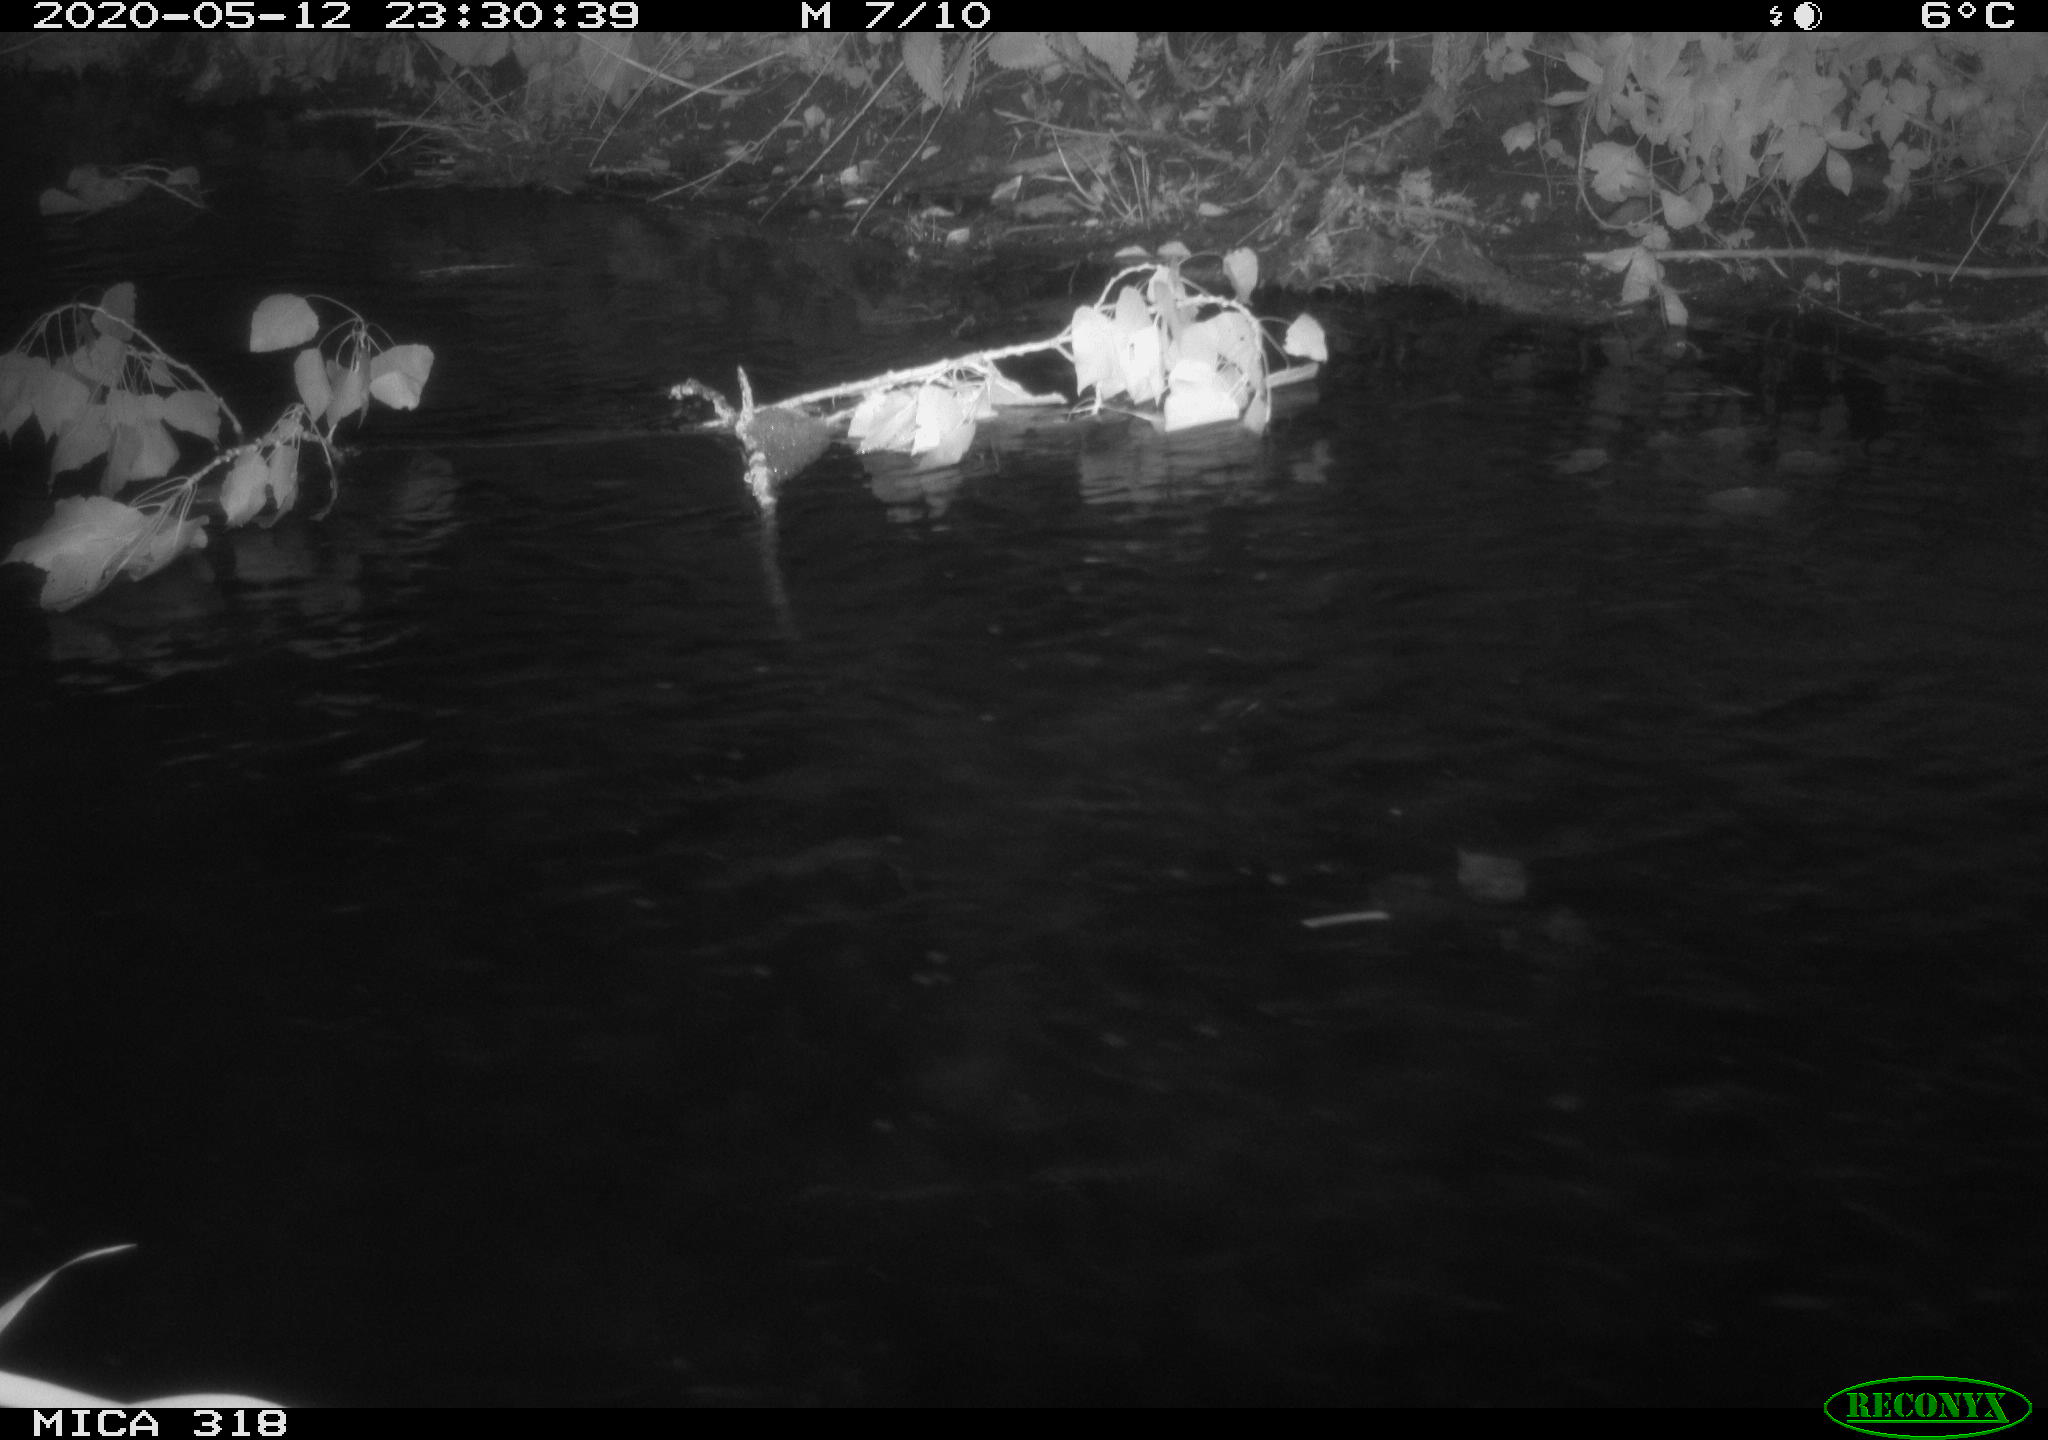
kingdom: Animalia
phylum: Chordata
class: Aves
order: Pelecaniformes
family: Ardeidae
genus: Ardea
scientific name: Ardea cinerea
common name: Grey heron
